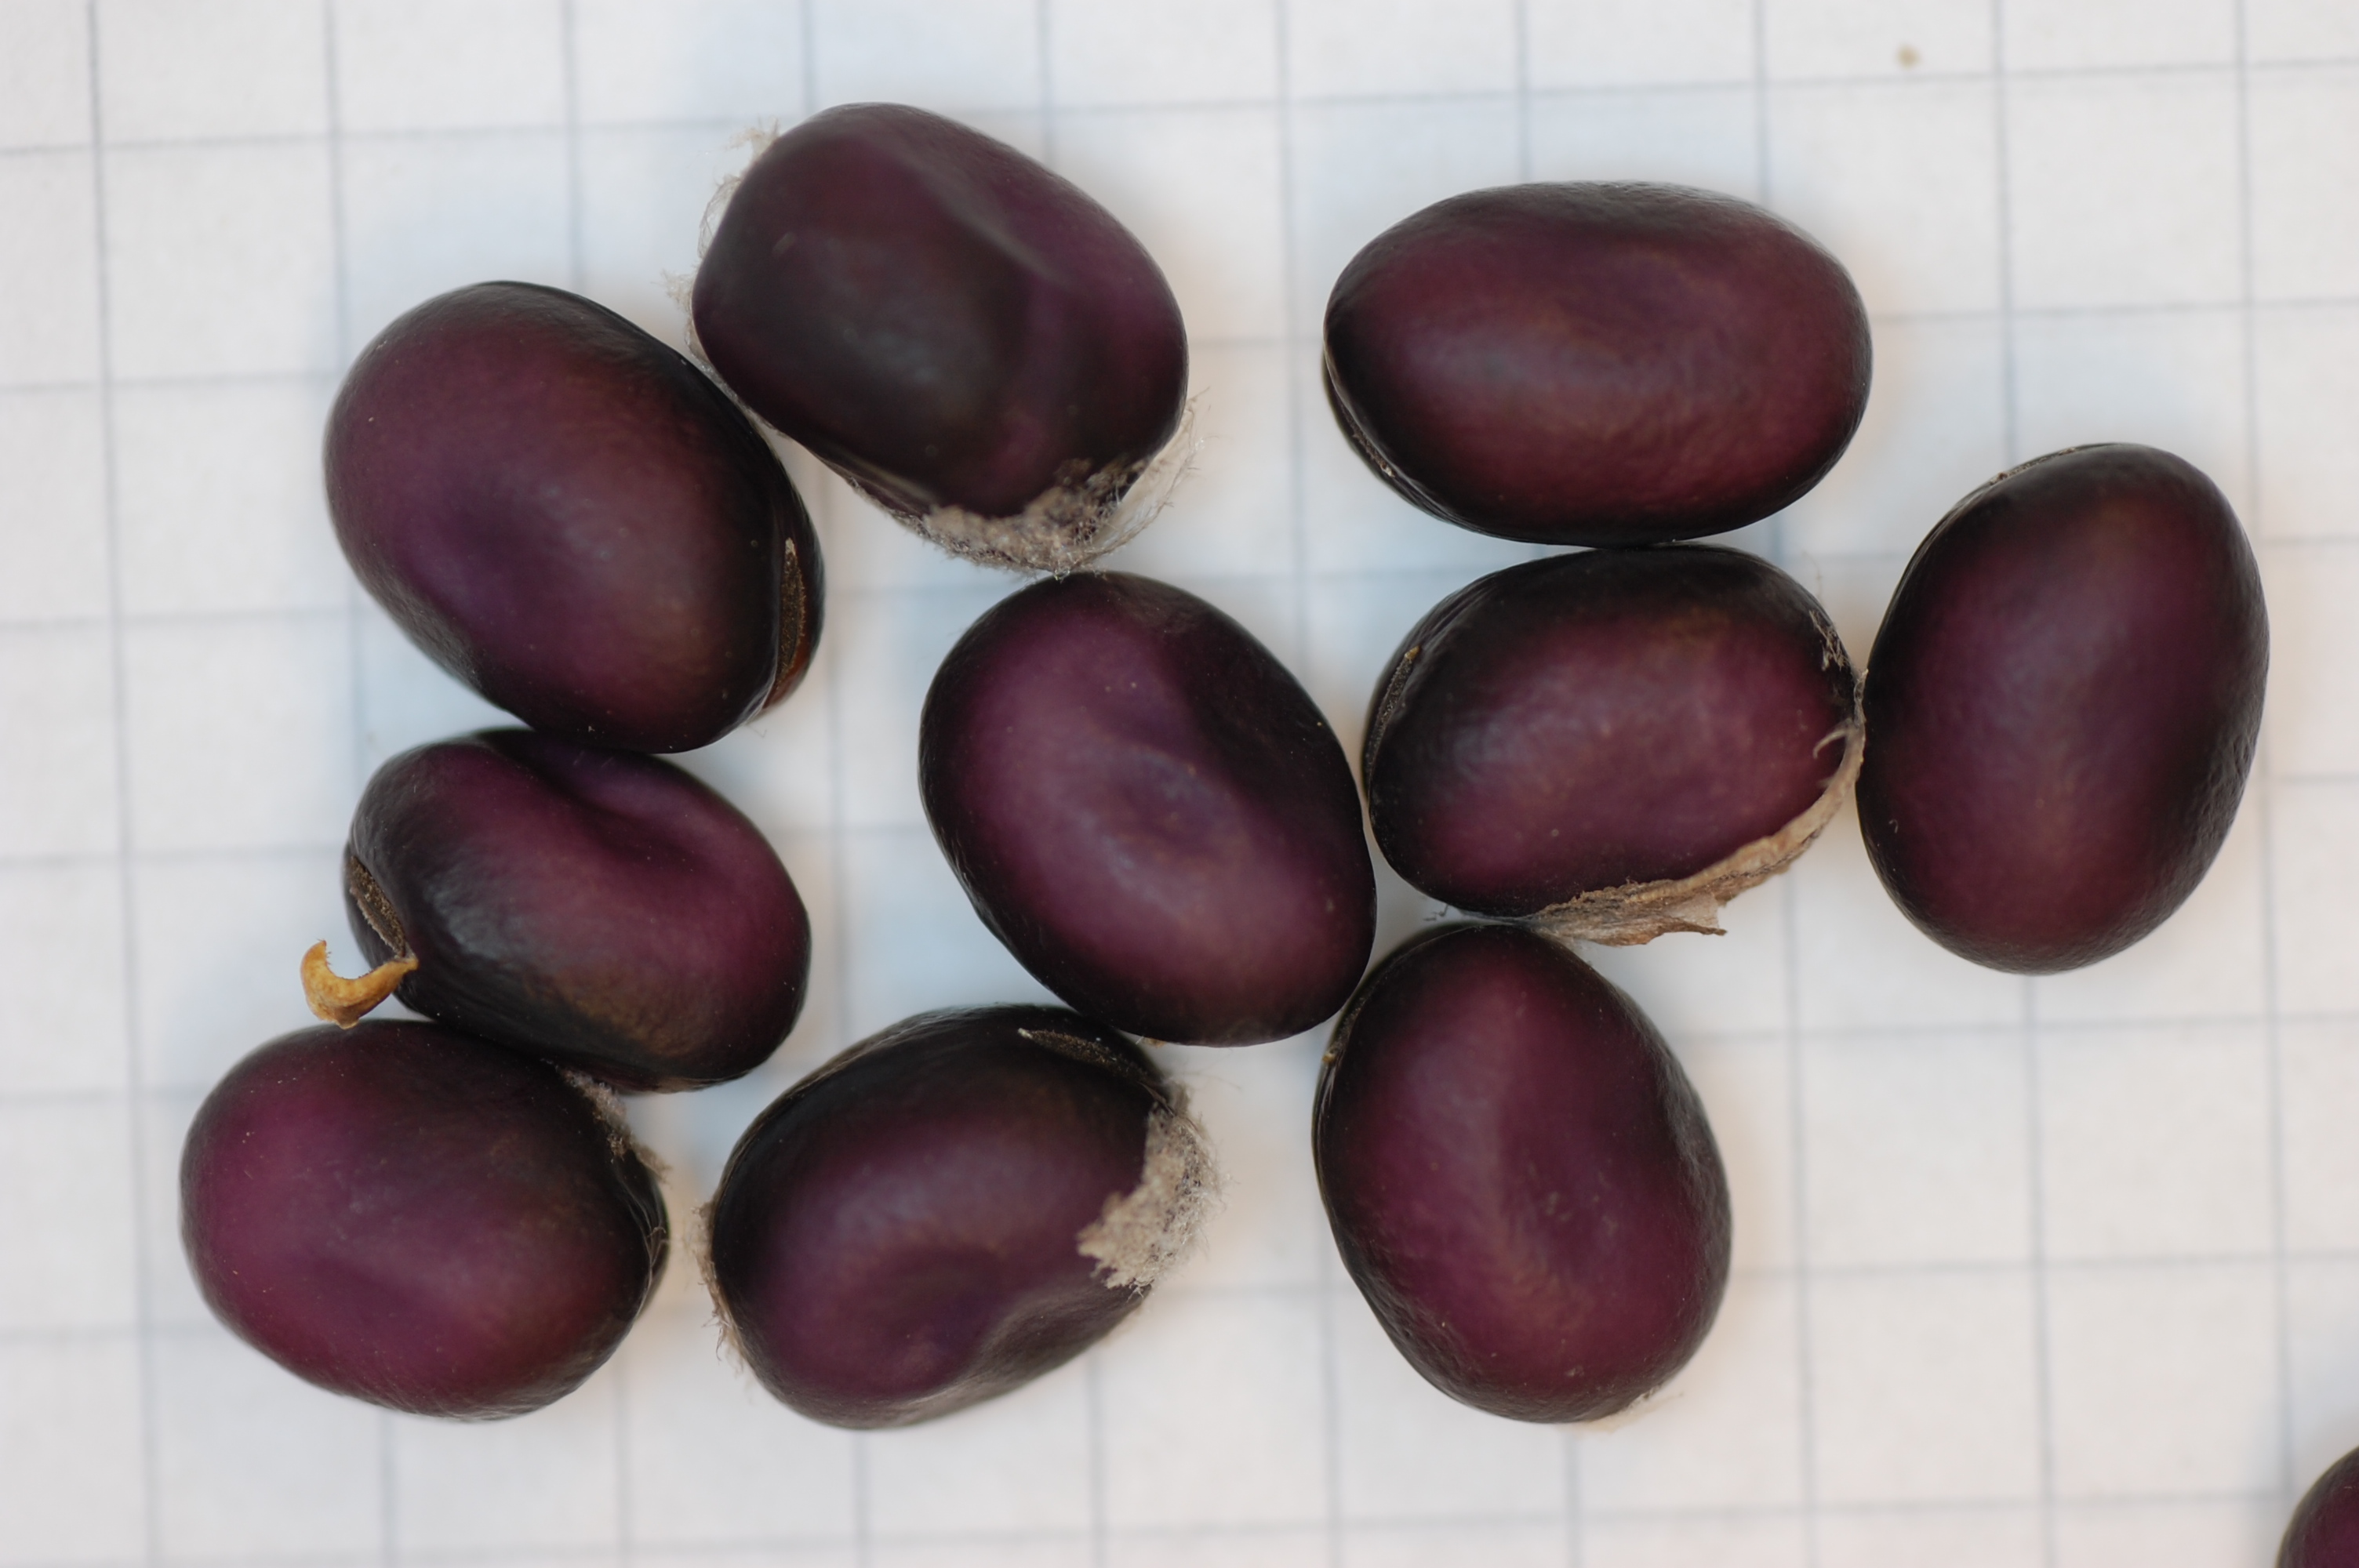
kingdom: Plantae
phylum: Tracheophyta
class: Magnoliopsida
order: Fabales
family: Fabaceae
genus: Vicia
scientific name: Vicia faba
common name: Broad bean
